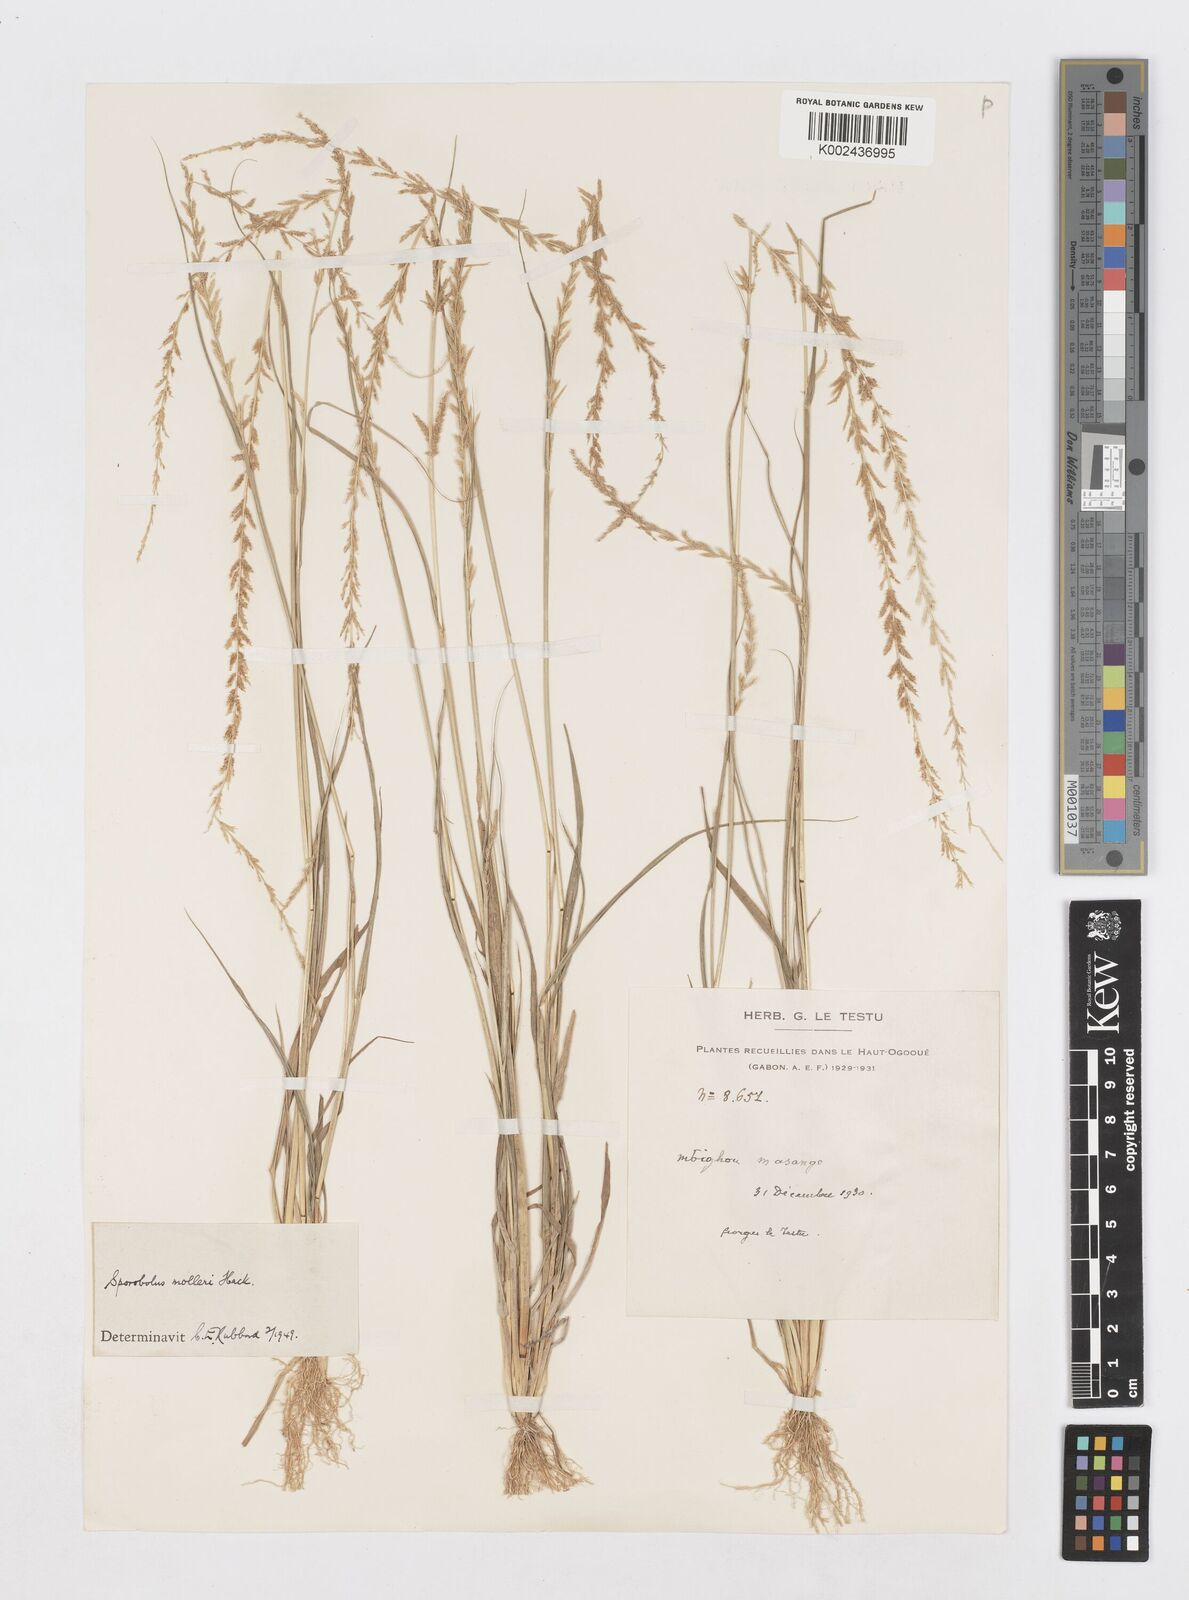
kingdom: Plantae
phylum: Tracheophyta
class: Liliopsida
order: Poales
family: Poaceae
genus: Sporobolus
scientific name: Sporobolus molleri
